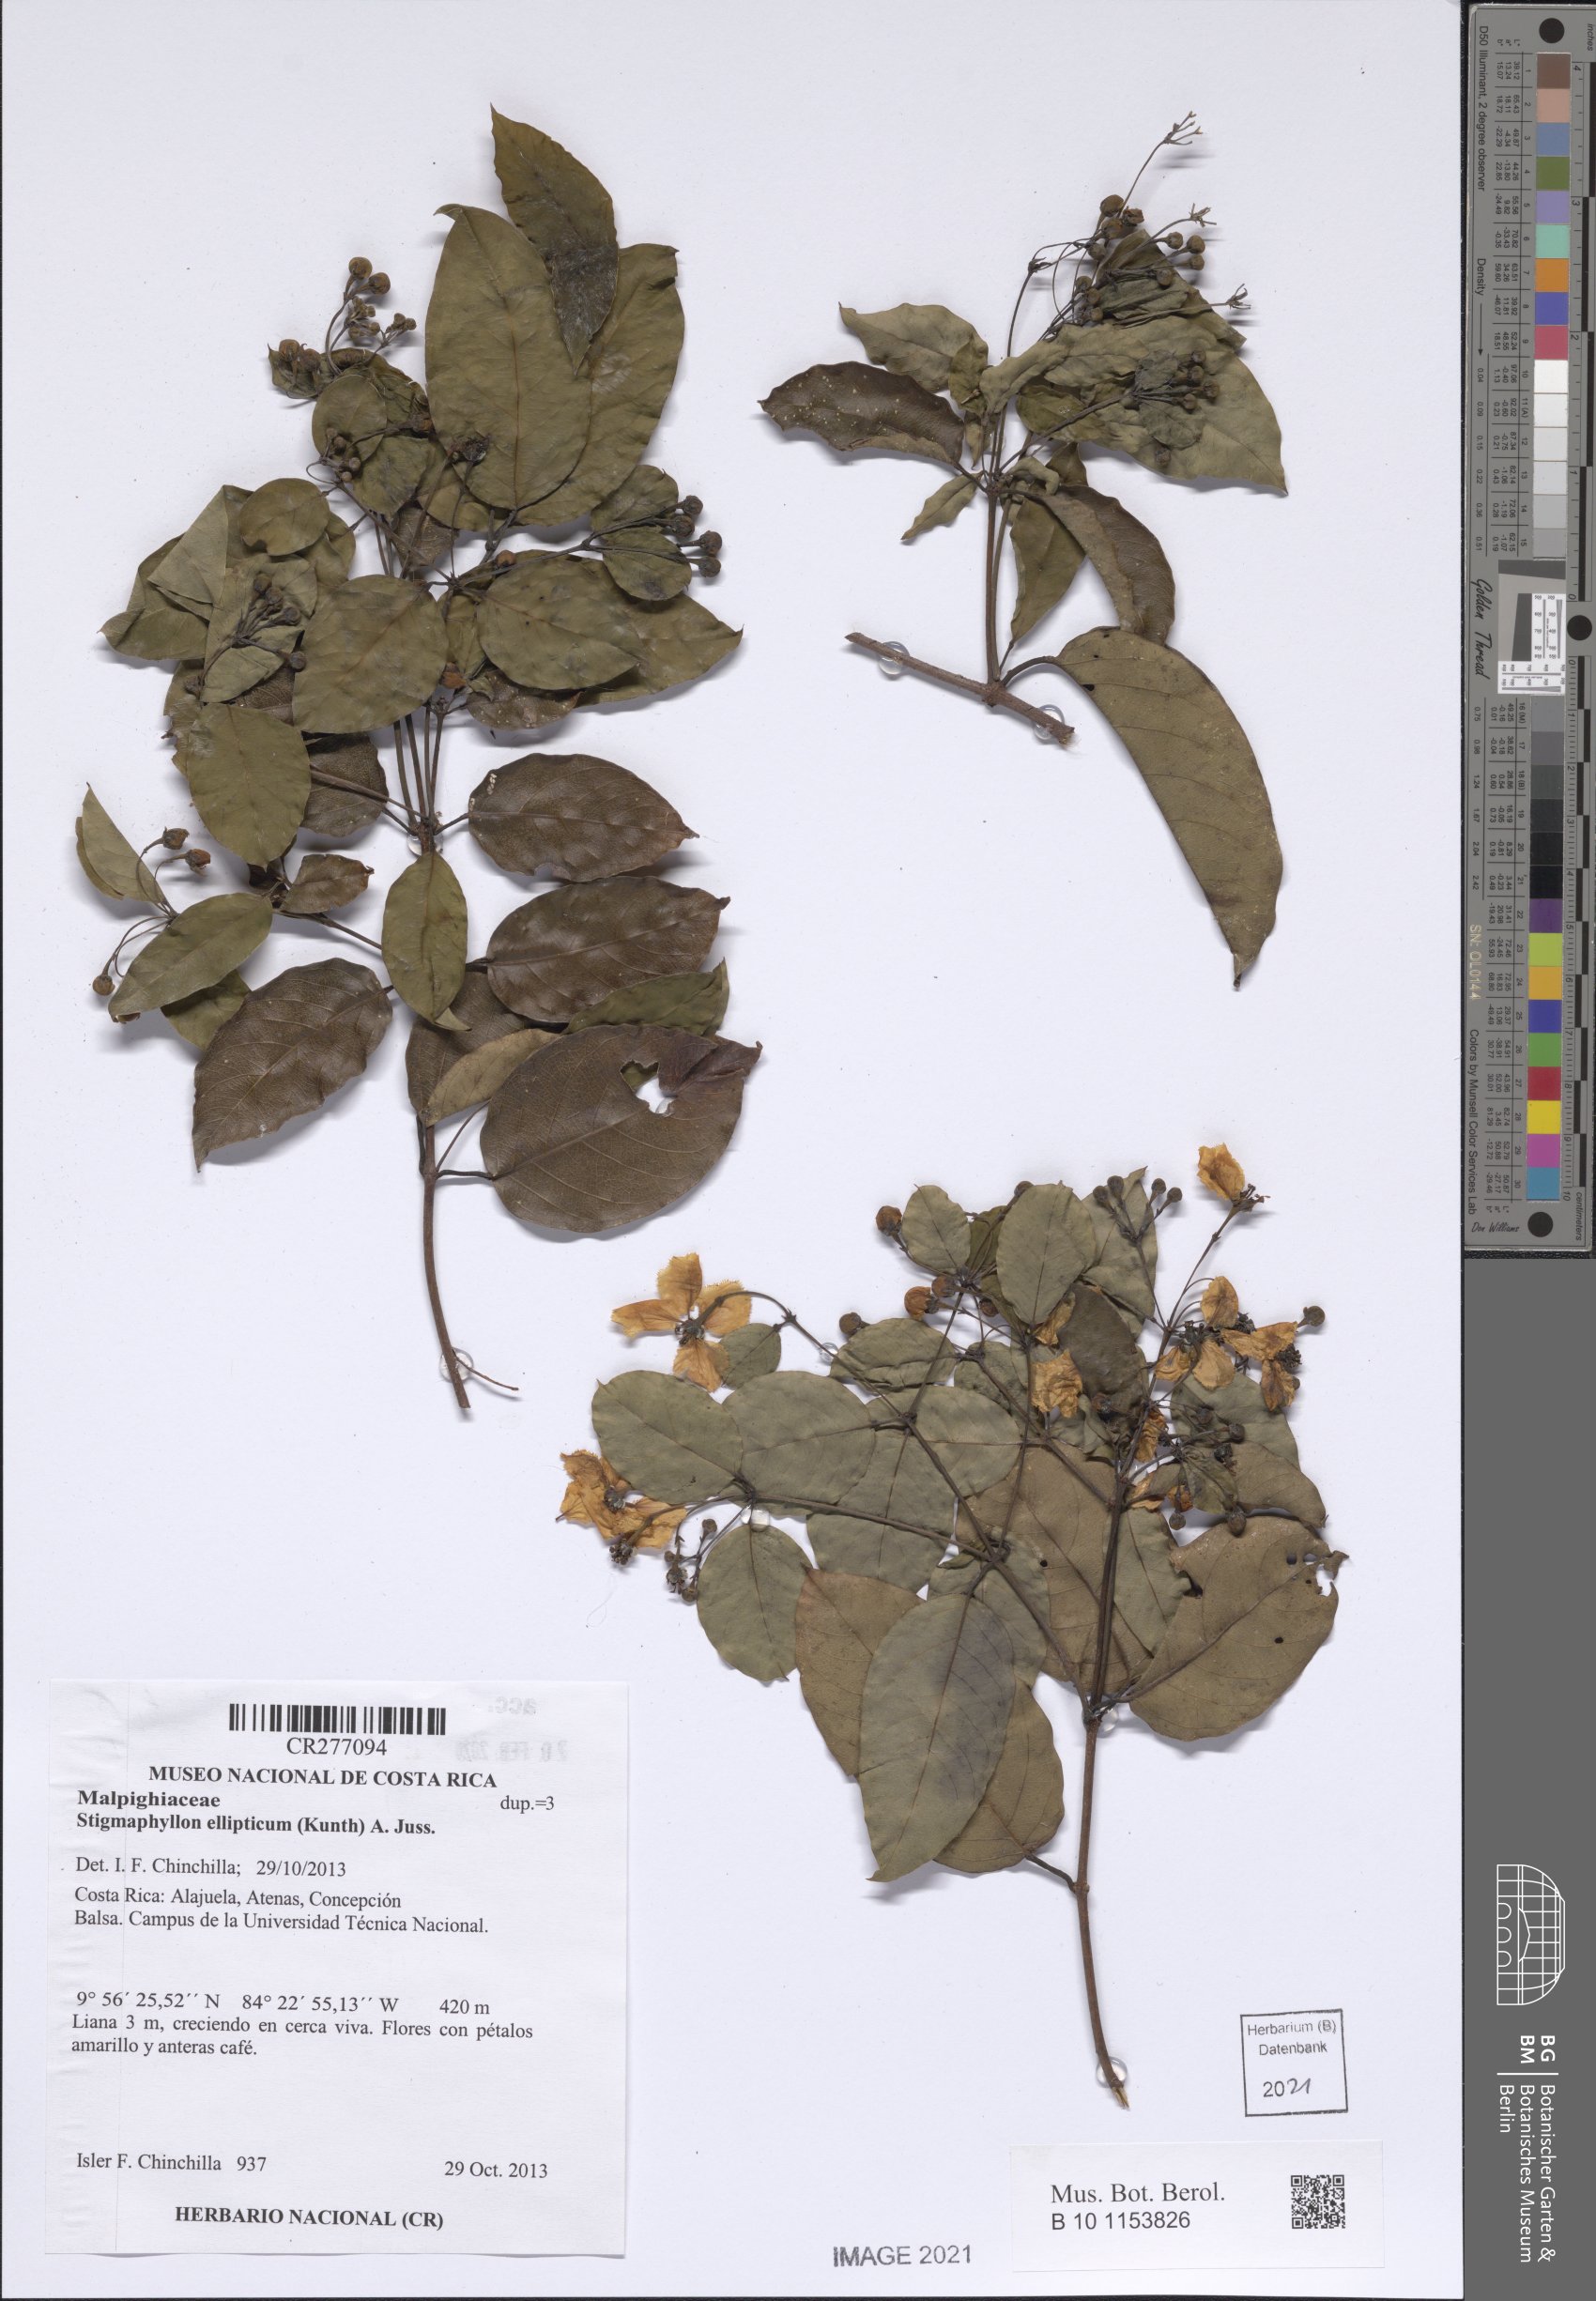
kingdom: Plantae
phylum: Tracheophyta
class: Magnoliopsida
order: Malpighiales
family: Malpighiaceae
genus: Stigmaphyllon
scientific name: Stigmaphyllon ellipticum
